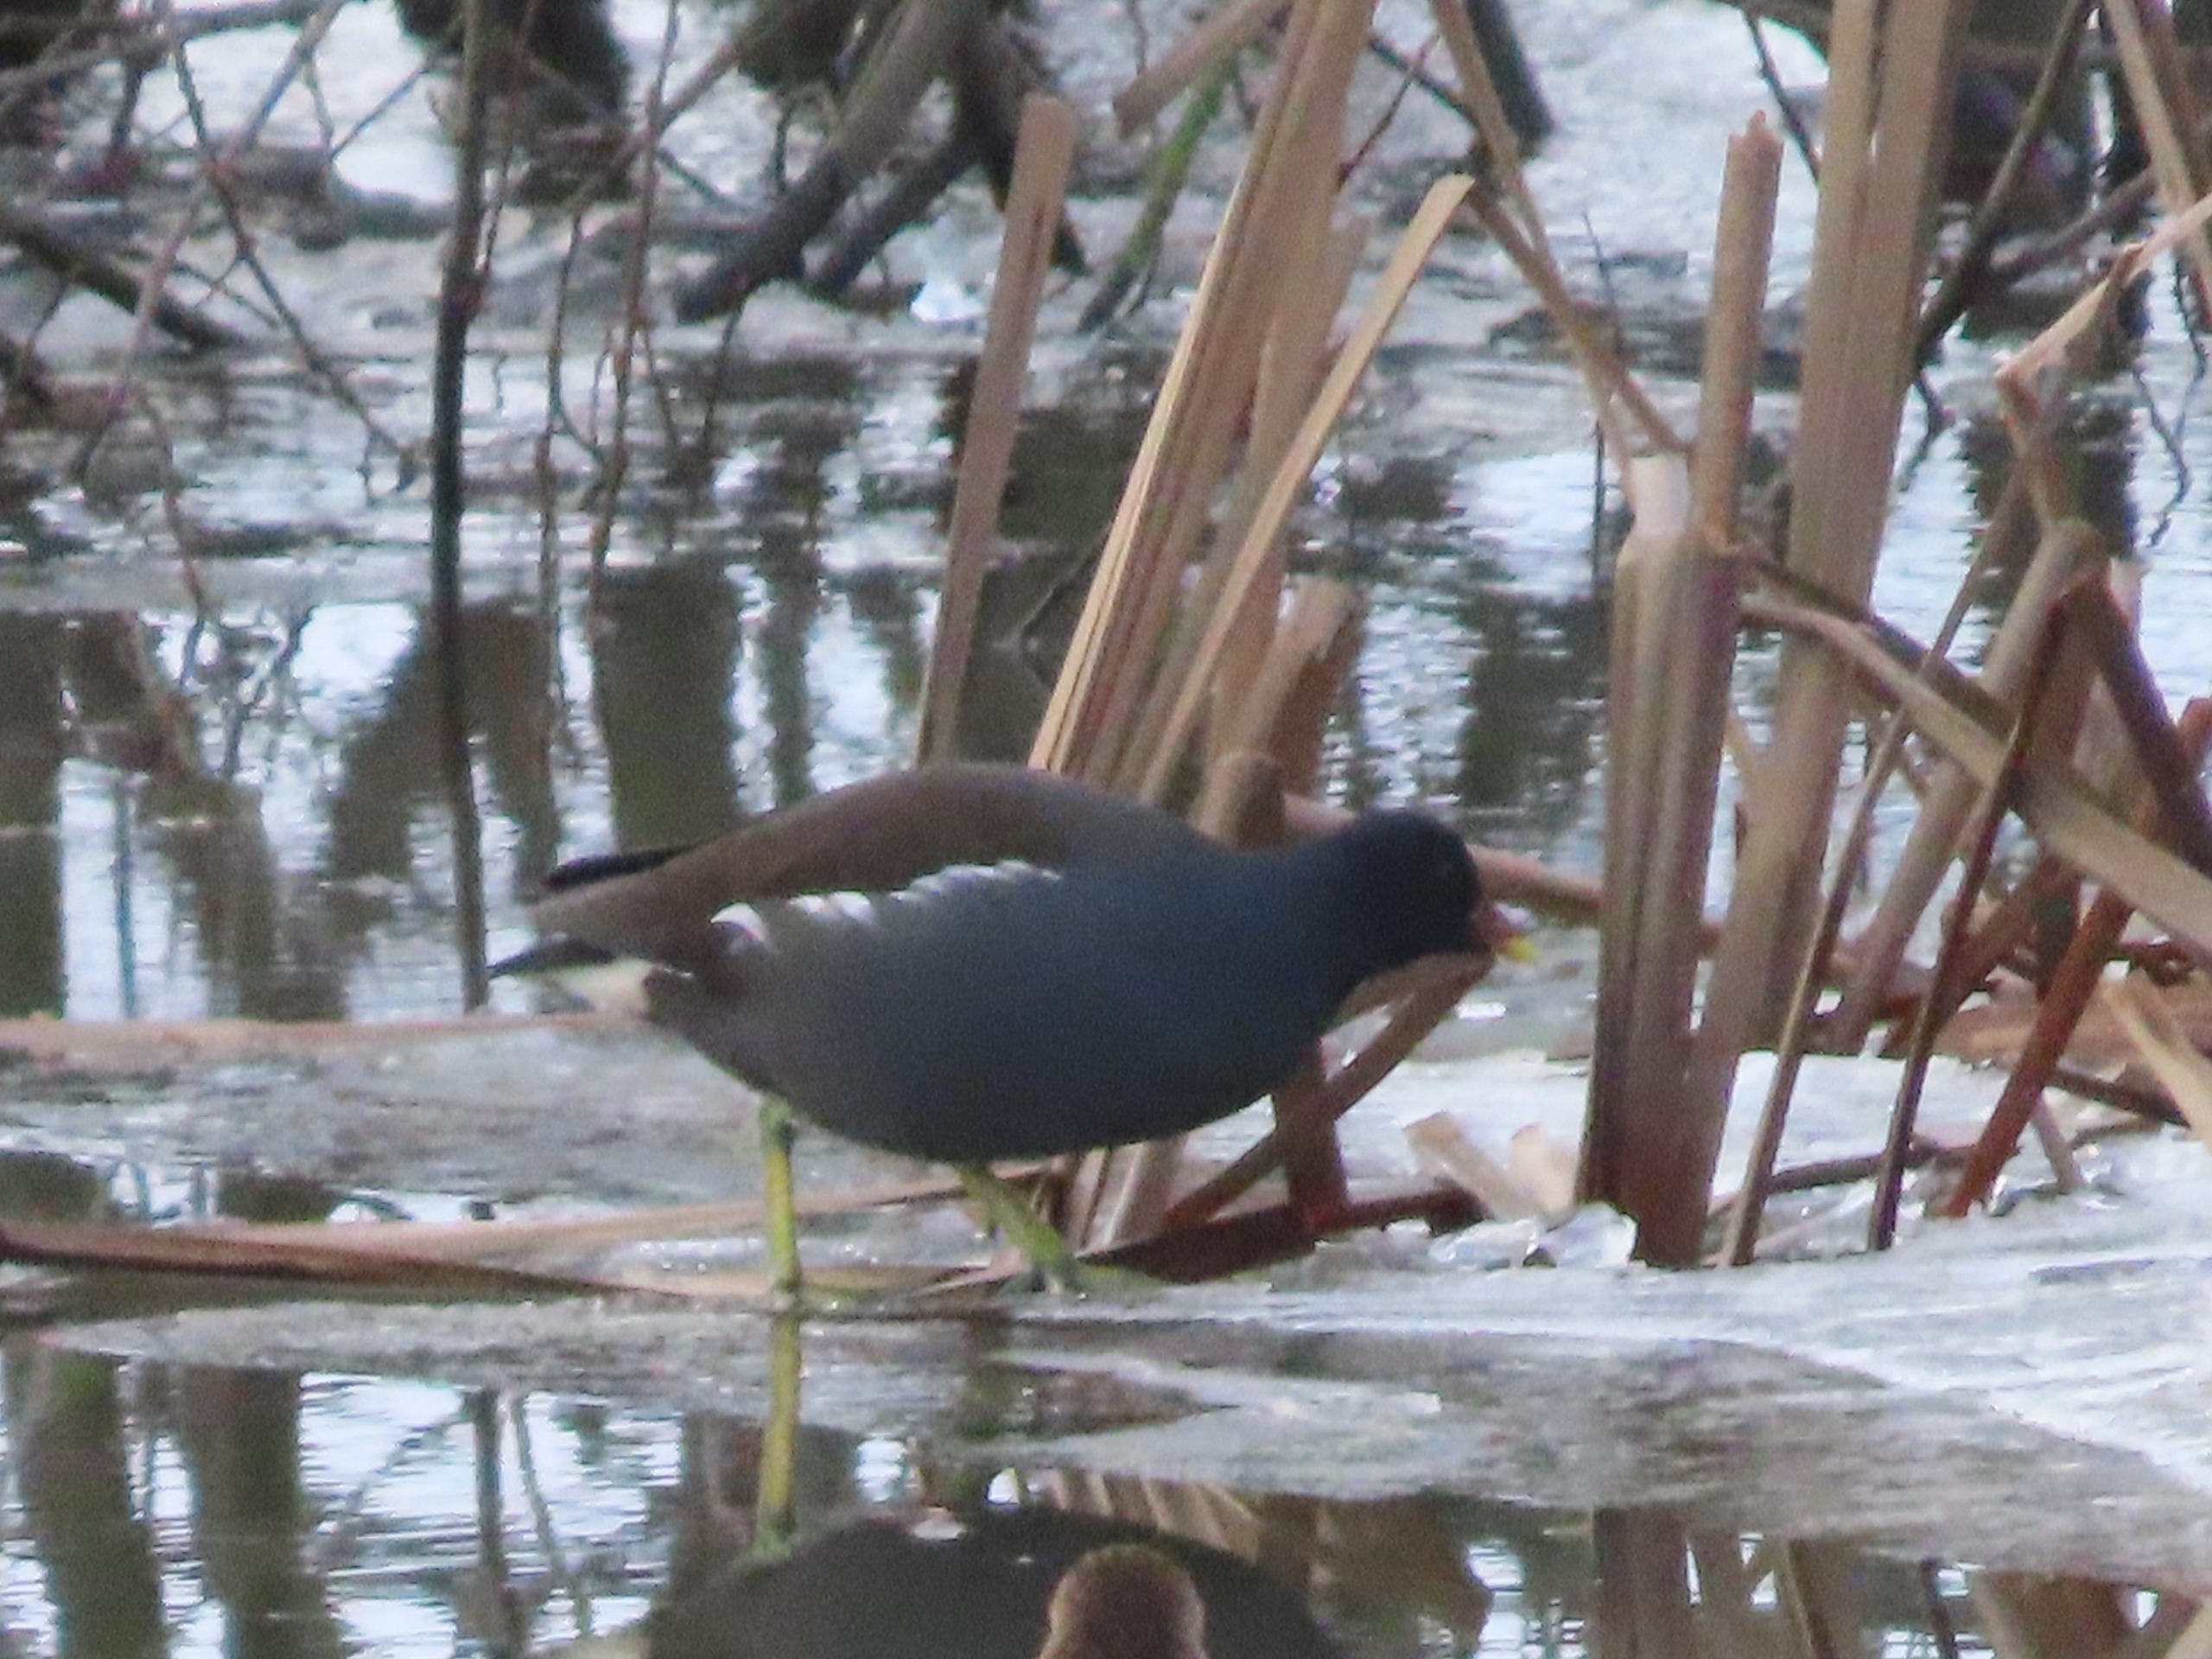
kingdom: Animalia
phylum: Chordata
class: Aves
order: Gruiformes
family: Rallidae
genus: Gallinula
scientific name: Gallinula chloropus
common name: Grønbenet rørhøne
